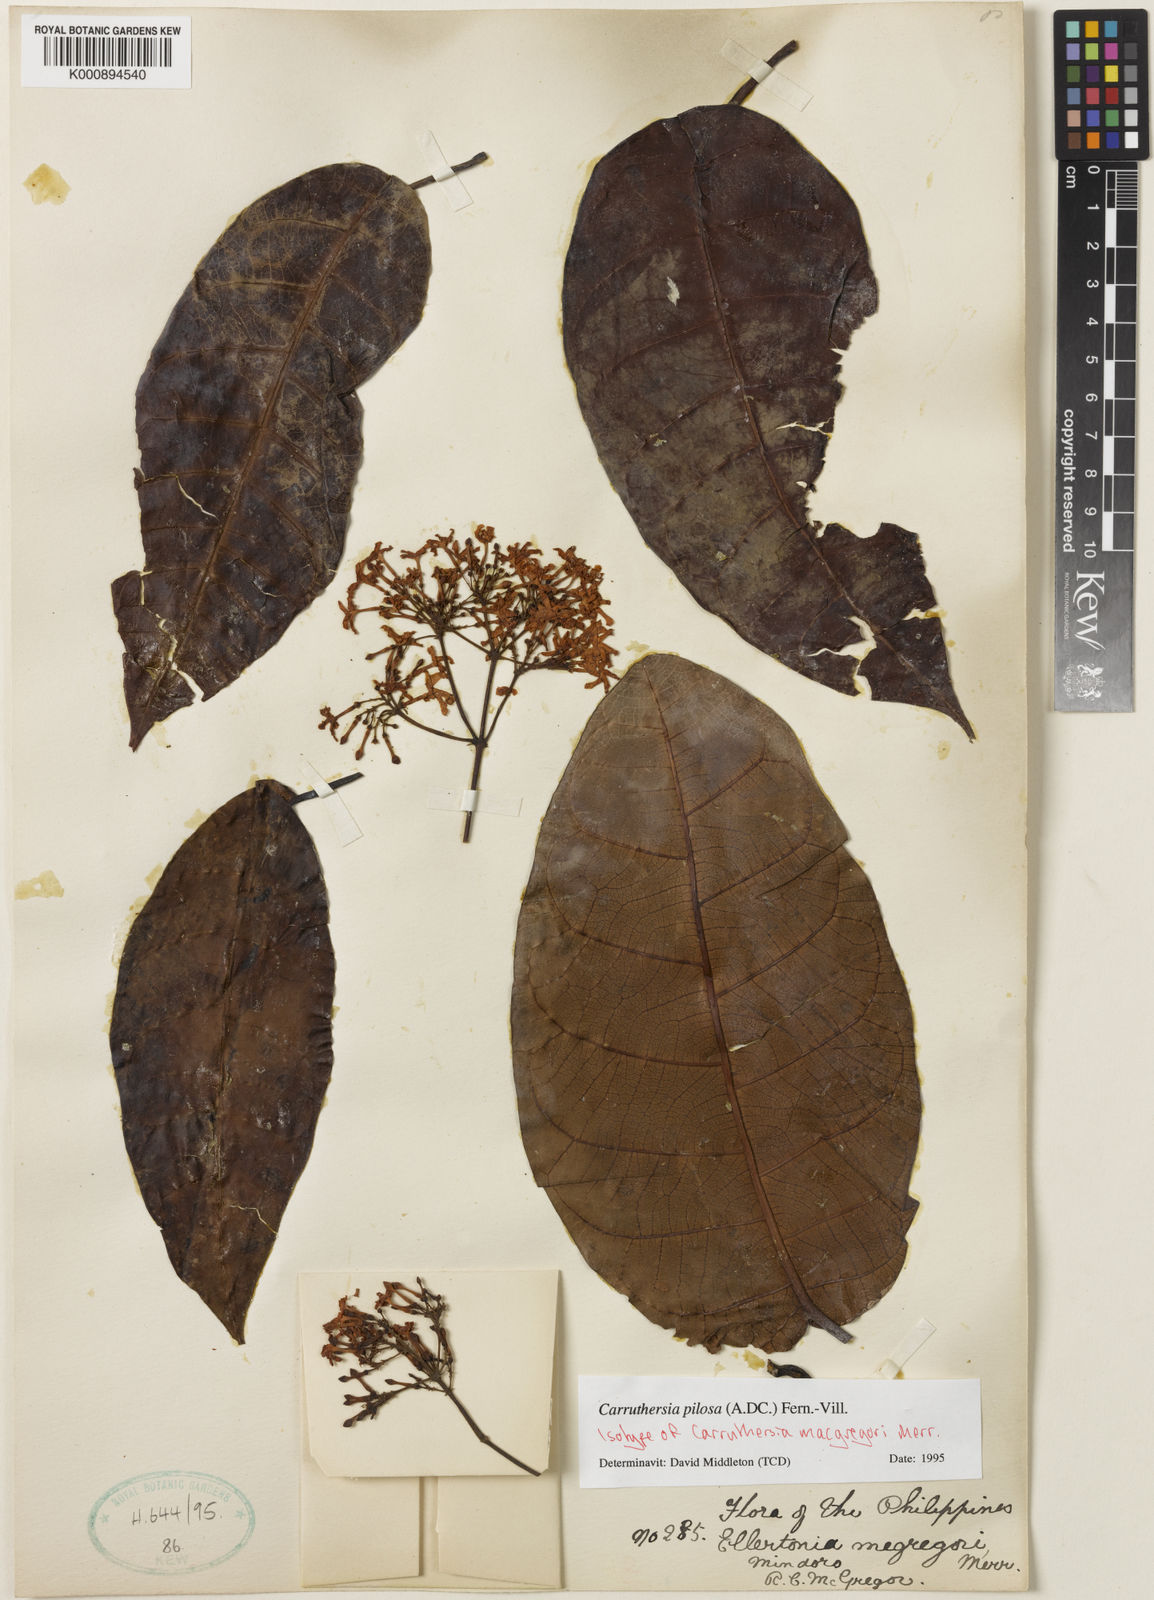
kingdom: Plantae
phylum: Tracheophyta
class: Magnoliopsida
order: Gentianales
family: Apocynaceae
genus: Carruthersia
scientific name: Carruthersia pilosa
